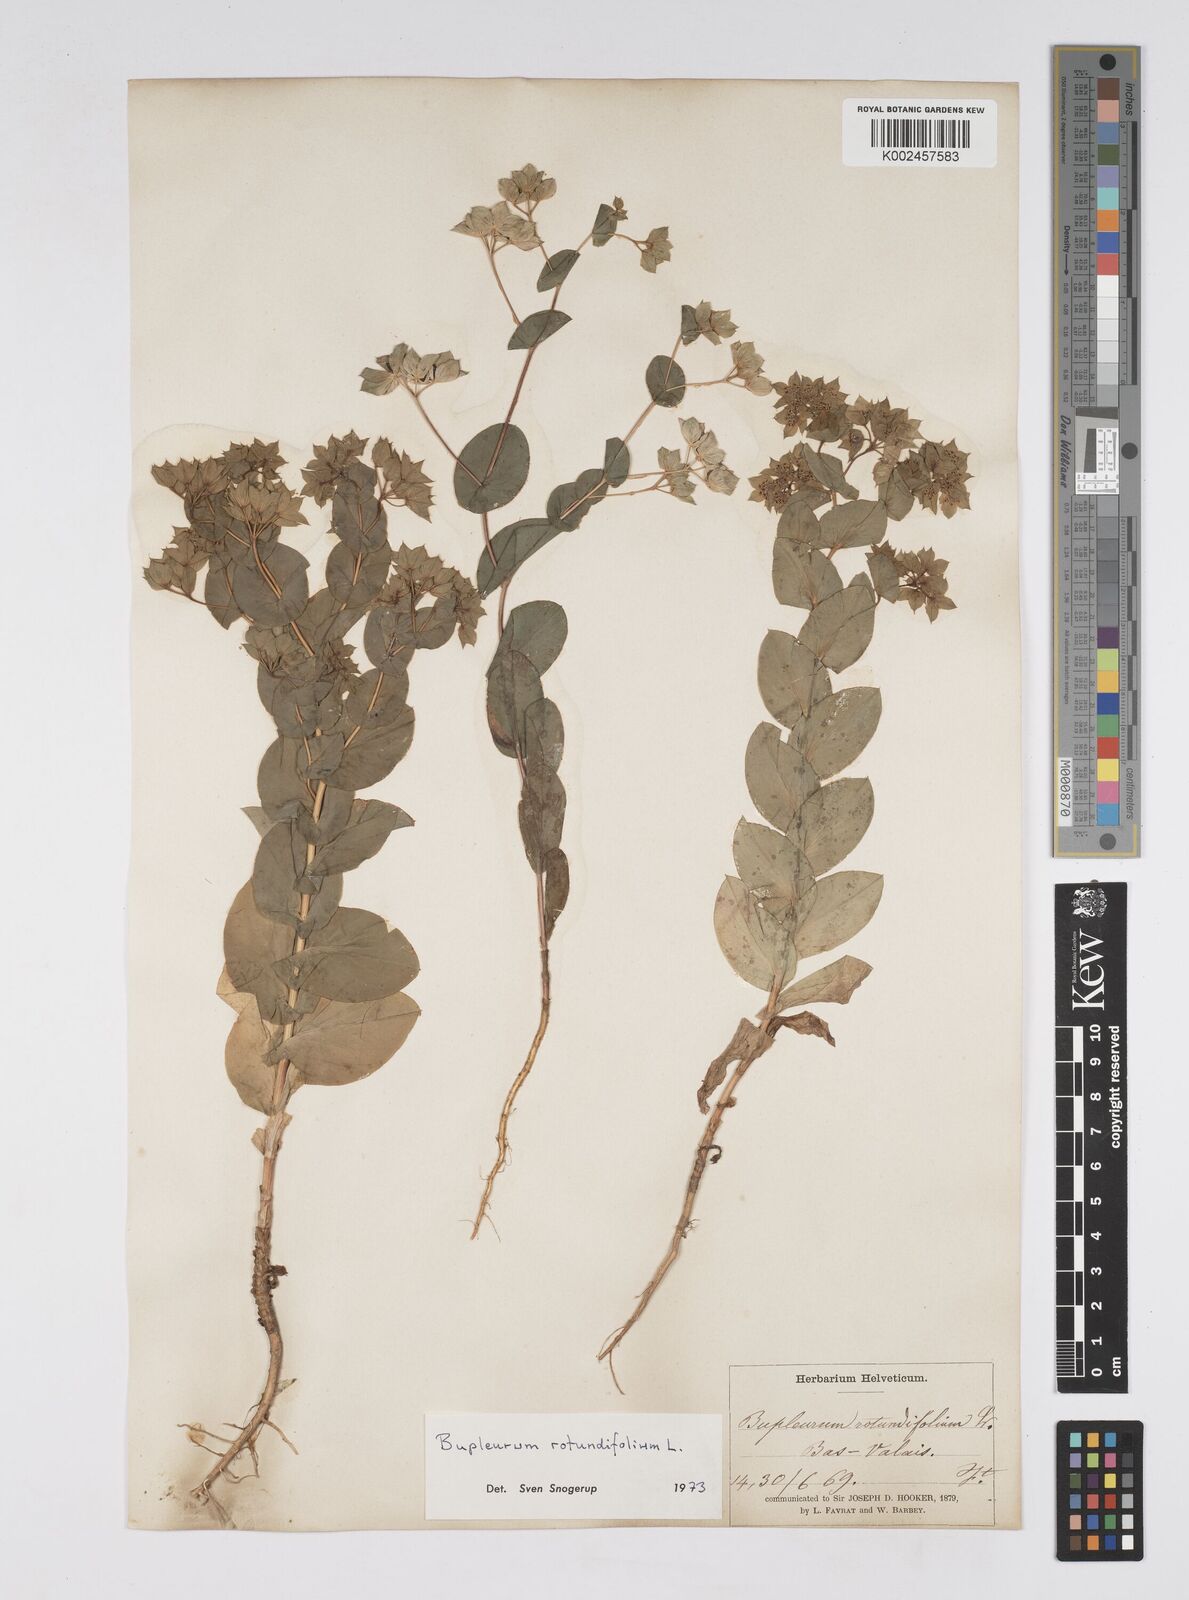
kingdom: Plantae
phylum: Tracheophyta
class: Magnoliopsida
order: Apiales
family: Apiaceae
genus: Bupleurum
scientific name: Bupleurum rotundifolium
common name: Thorow-wax
